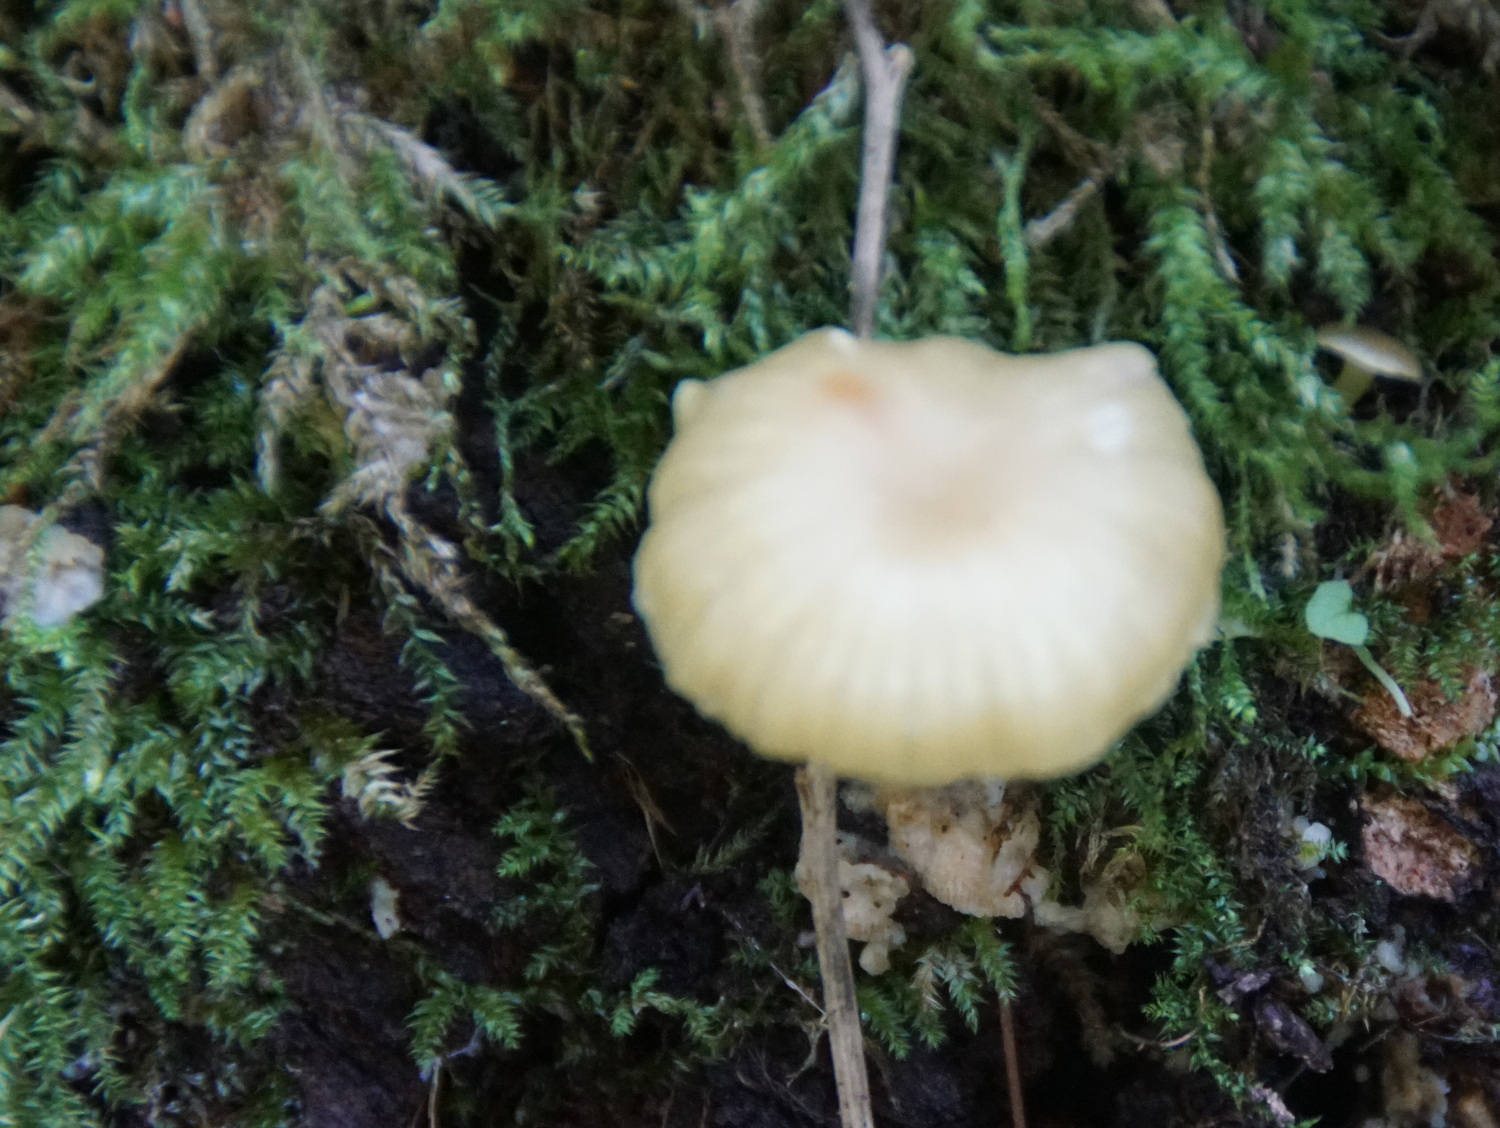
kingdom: Fungi
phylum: Basidiomycota
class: Agaricomycetes
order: Agaricales
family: Hygrophoraceae
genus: Chrysomphalina
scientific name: Chrysomphalina grossula
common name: stød-gyldenblad
